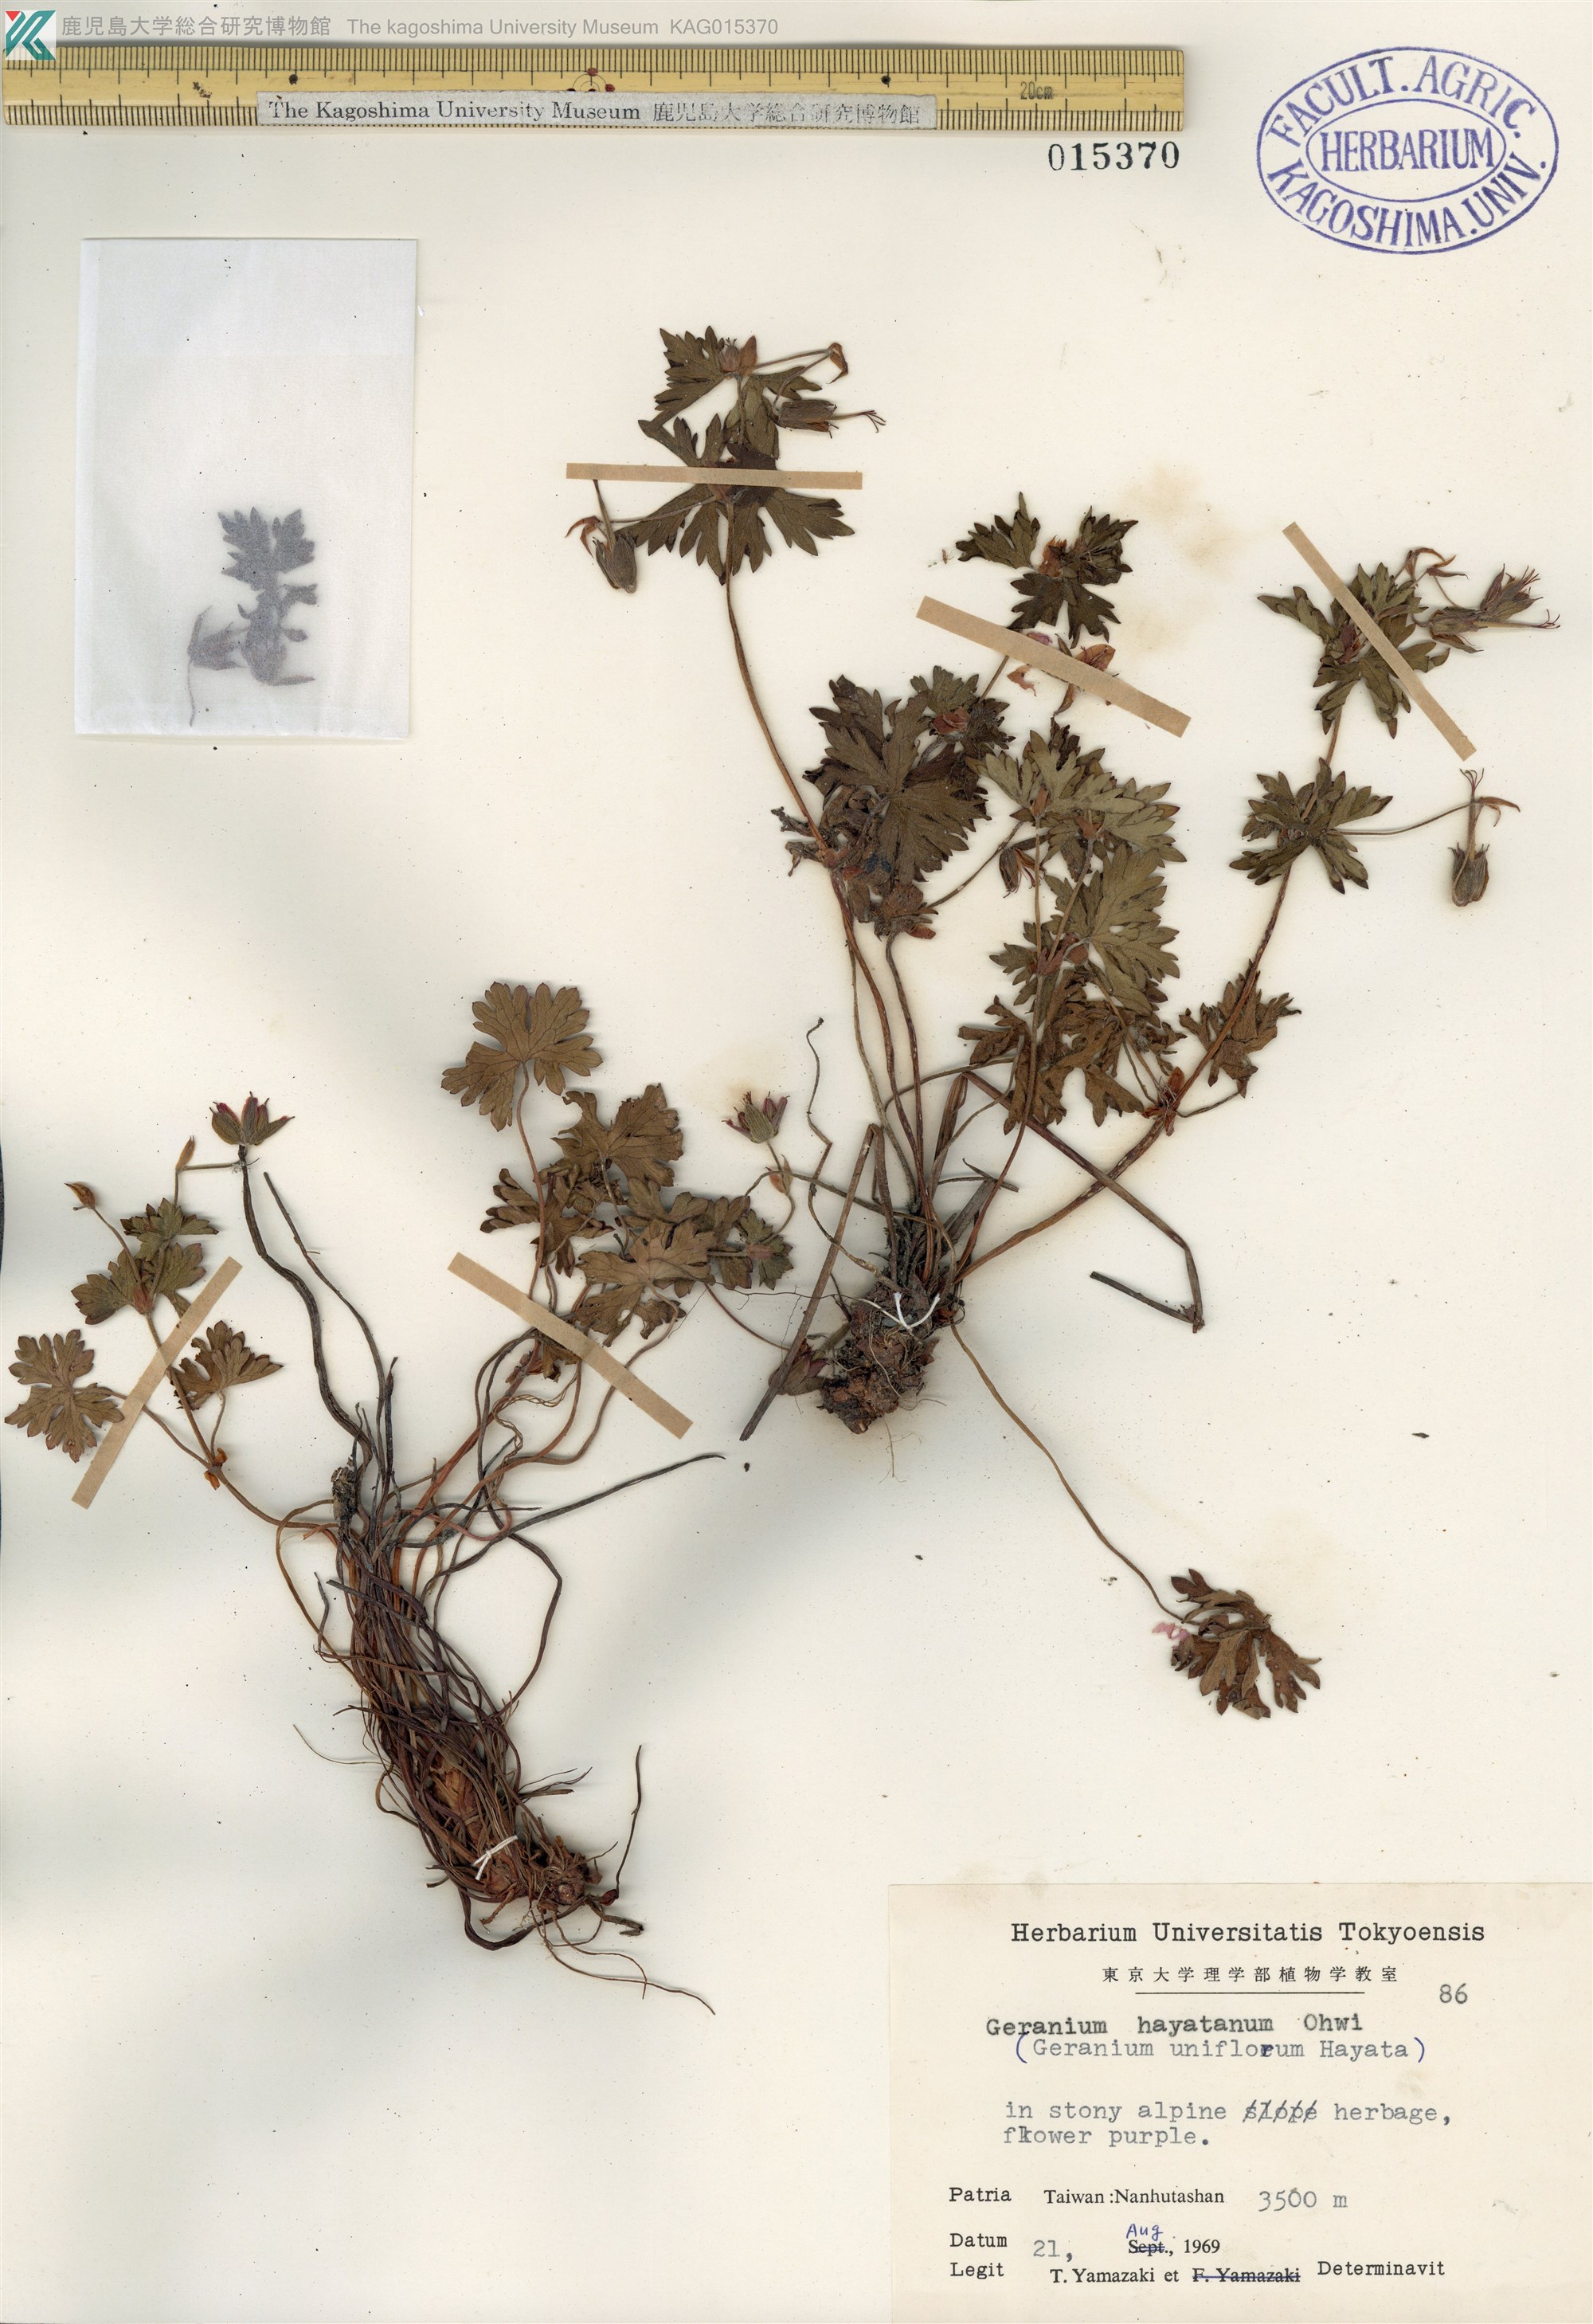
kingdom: Plantae
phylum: Tracheophyta
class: Magnoliopsida
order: Geraniales
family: Geraniaceae
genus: Geranium
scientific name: Geranium hayatanum
